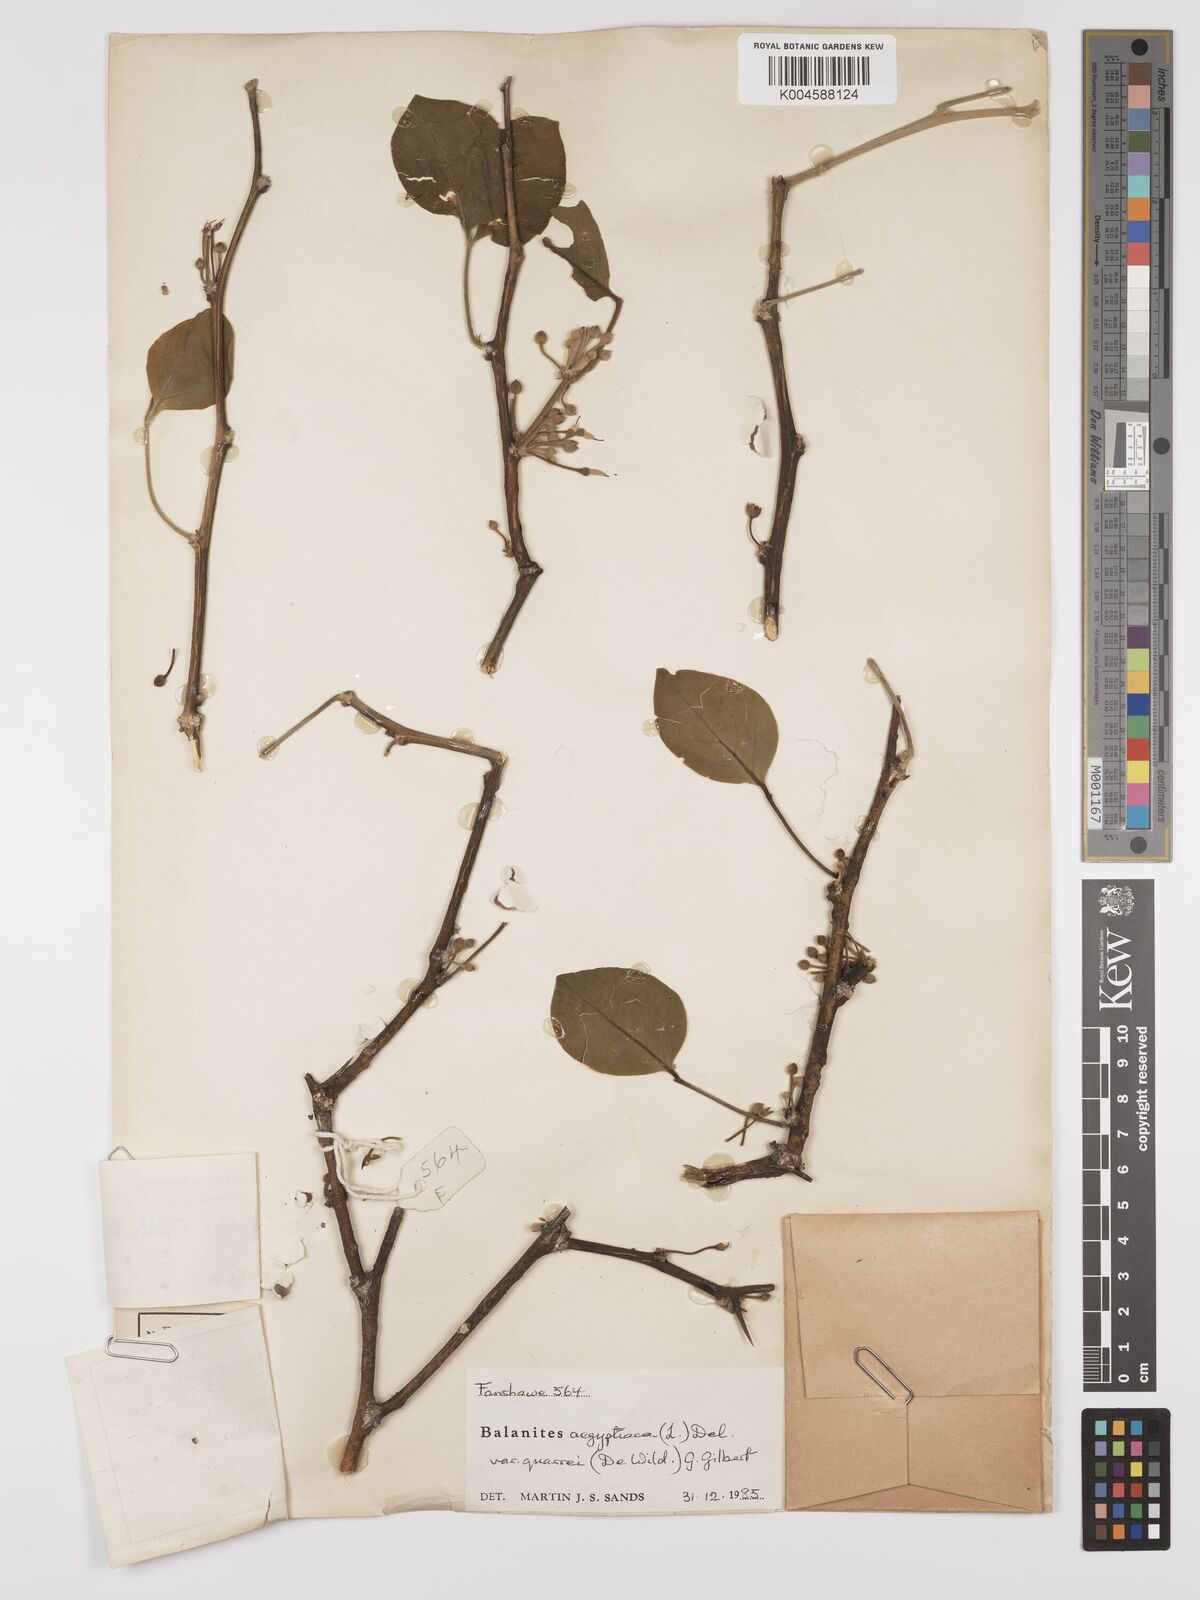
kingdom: Plantae
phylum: Tracheophyta
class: Magnoliopsida
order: Zygophyllales
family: Zygophyllaceae
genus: Balanites
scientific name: Balanites aegyptiaca
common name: Balanites
